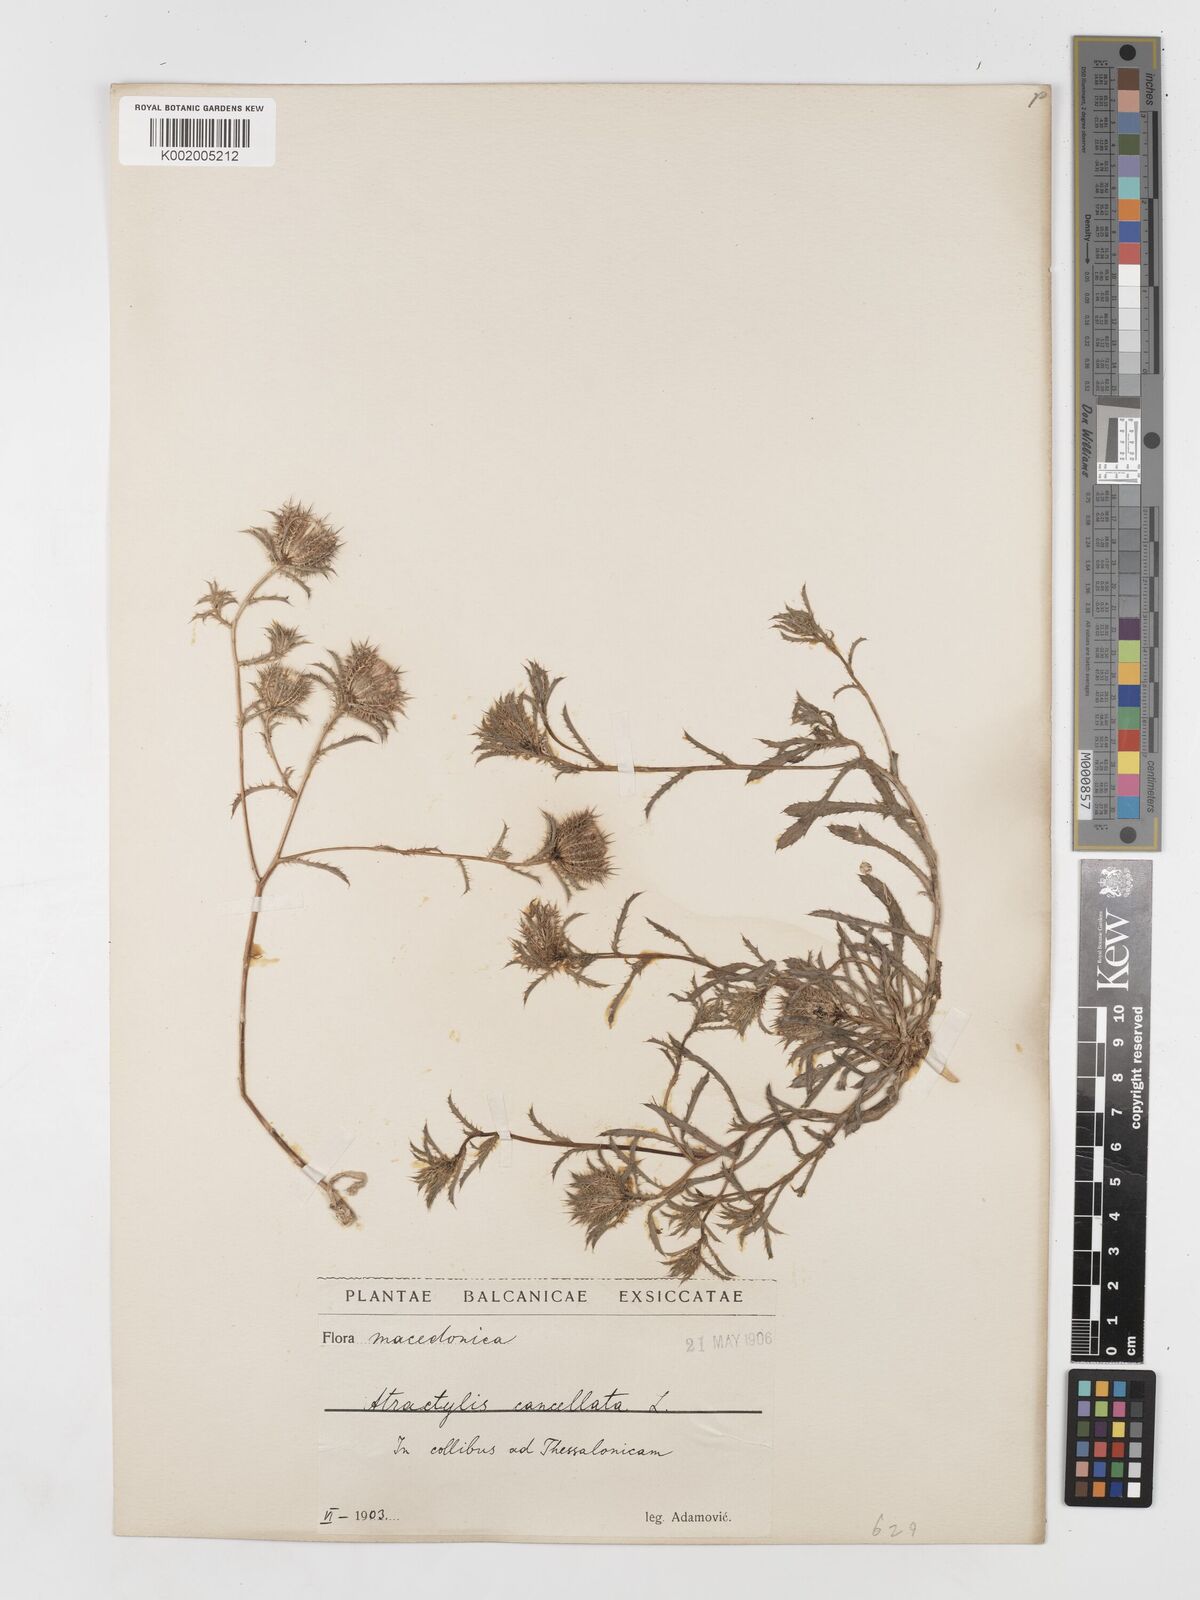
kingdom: Plantae
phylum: Tracheophyta
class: Magnoliopsida
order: Asterales
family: Asteraceae
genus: Atractylis
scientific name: Atractylis cancellata
